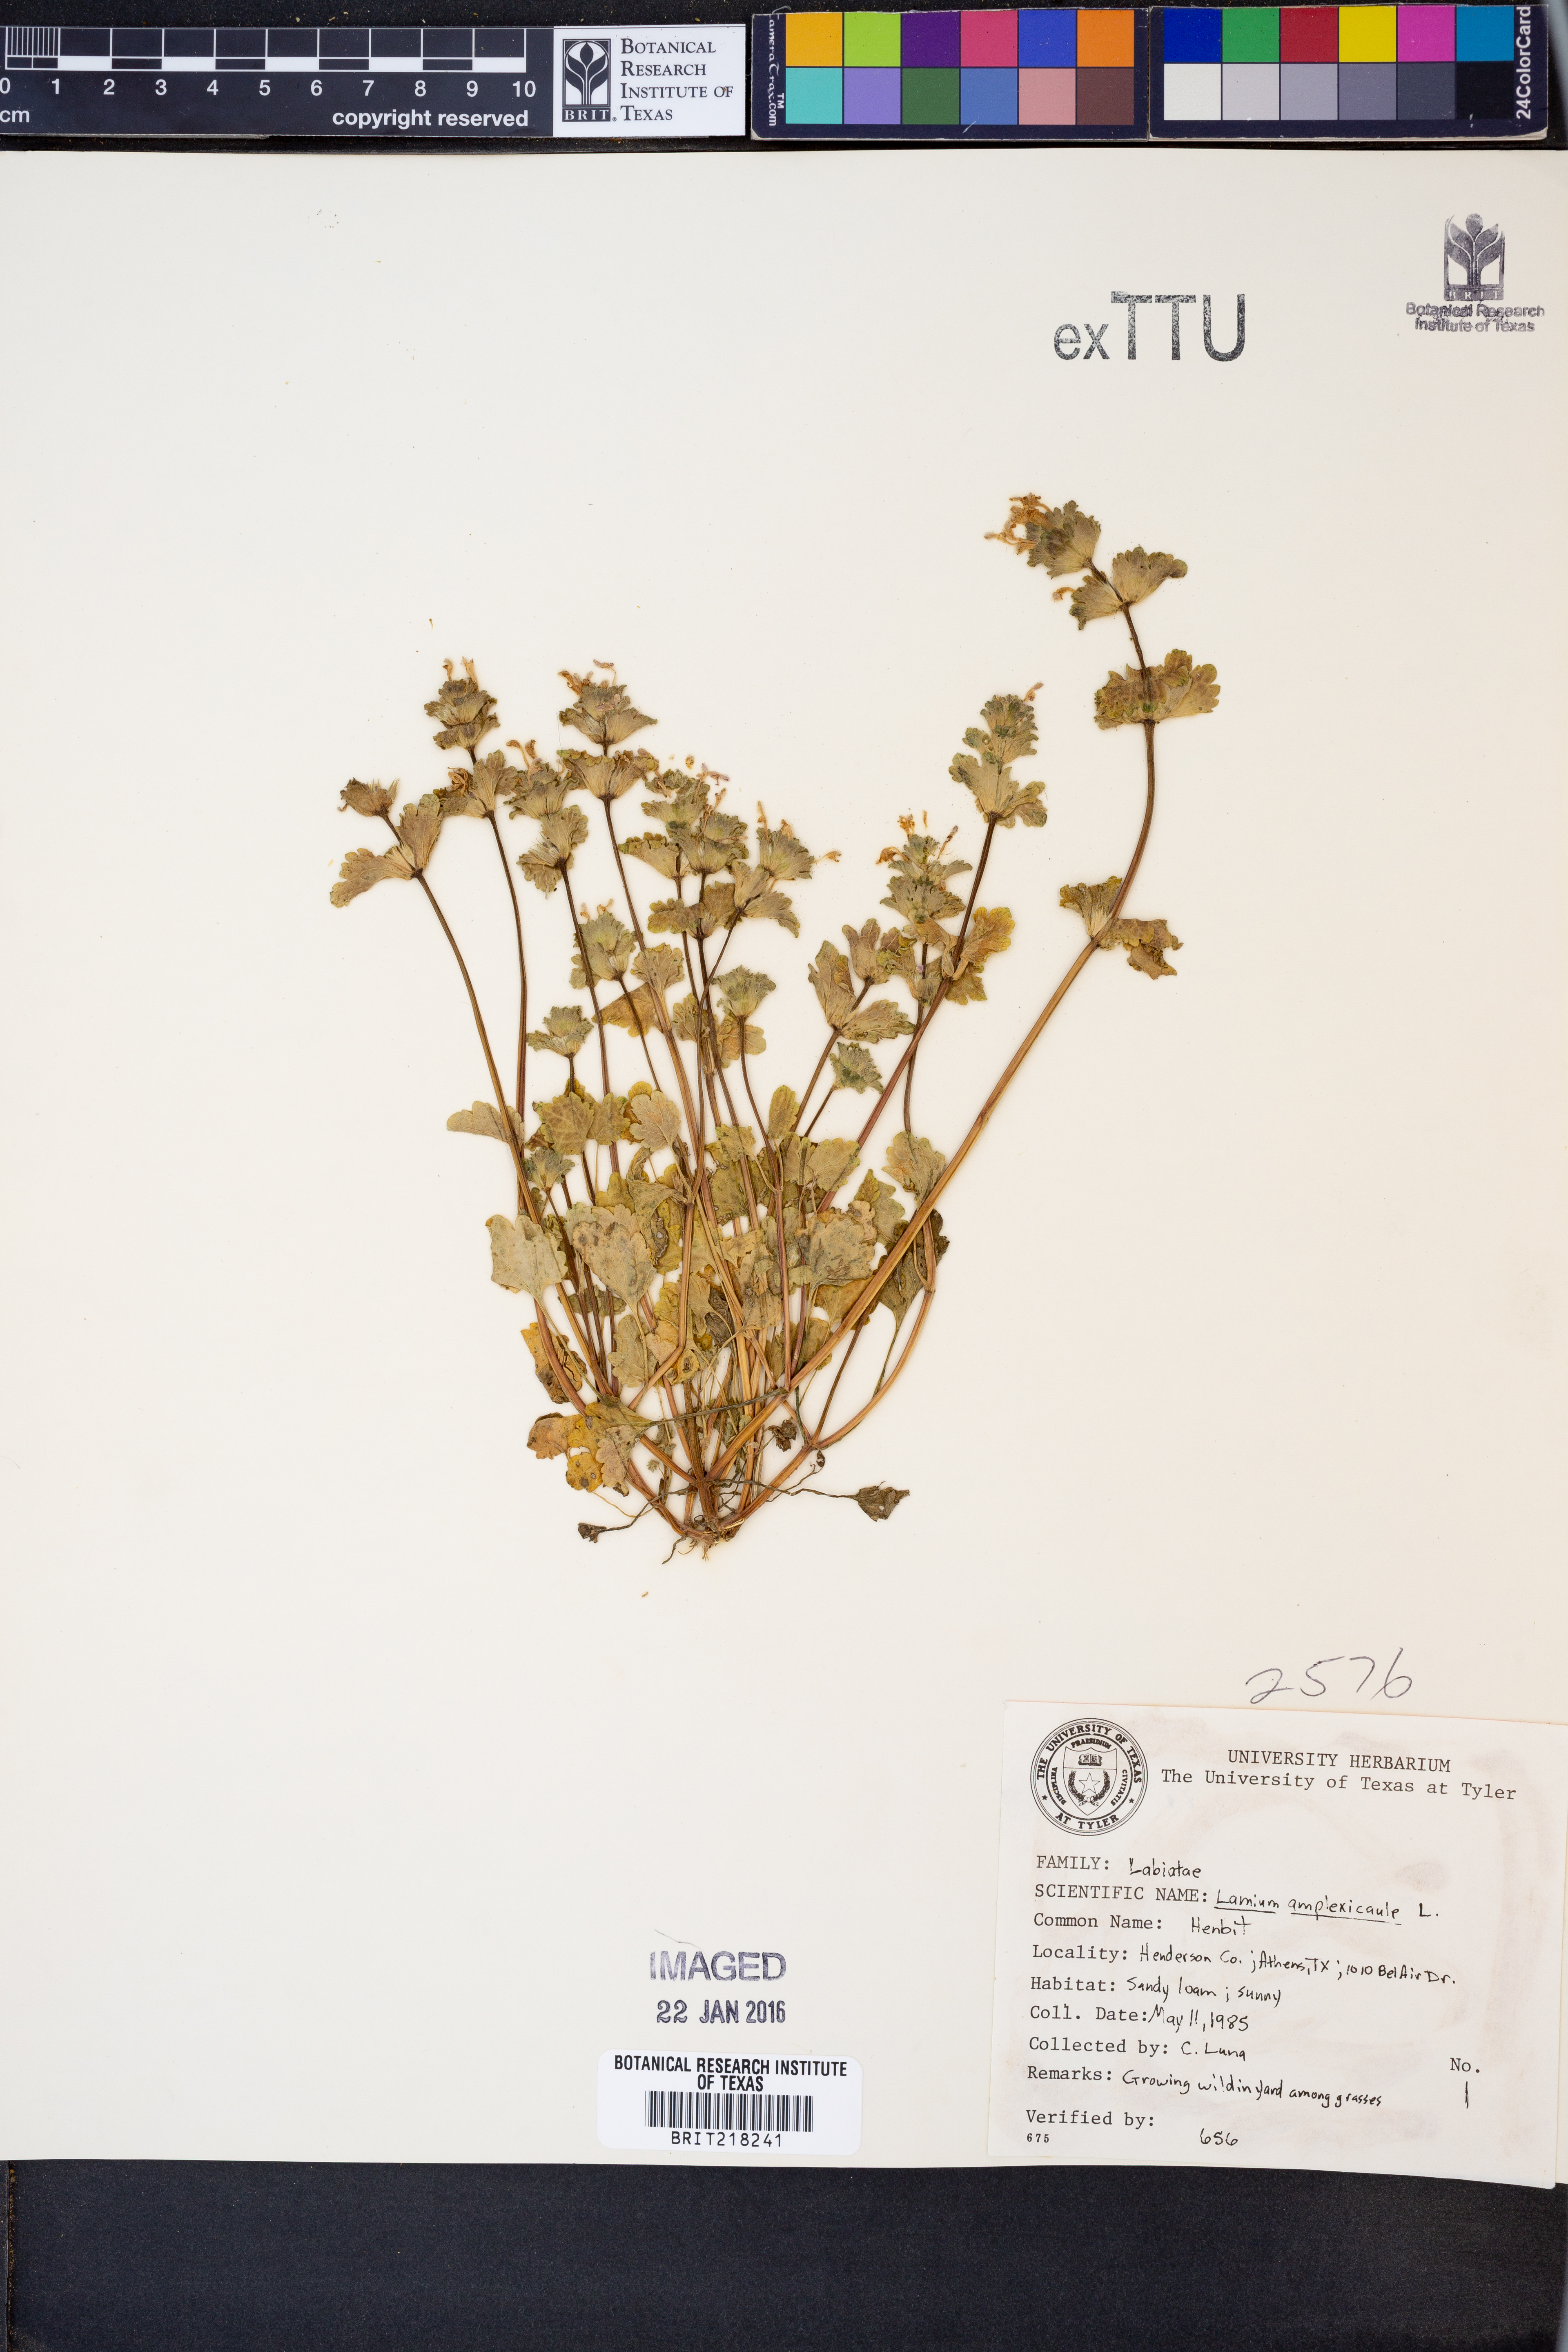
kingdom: Plantae
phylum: Tracheophyta
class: Magnoliopsida
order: Lamiales
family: Lamiaceae
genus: Lamium
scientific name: Lamium amplexicaule
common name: Henbit dead-nettle
